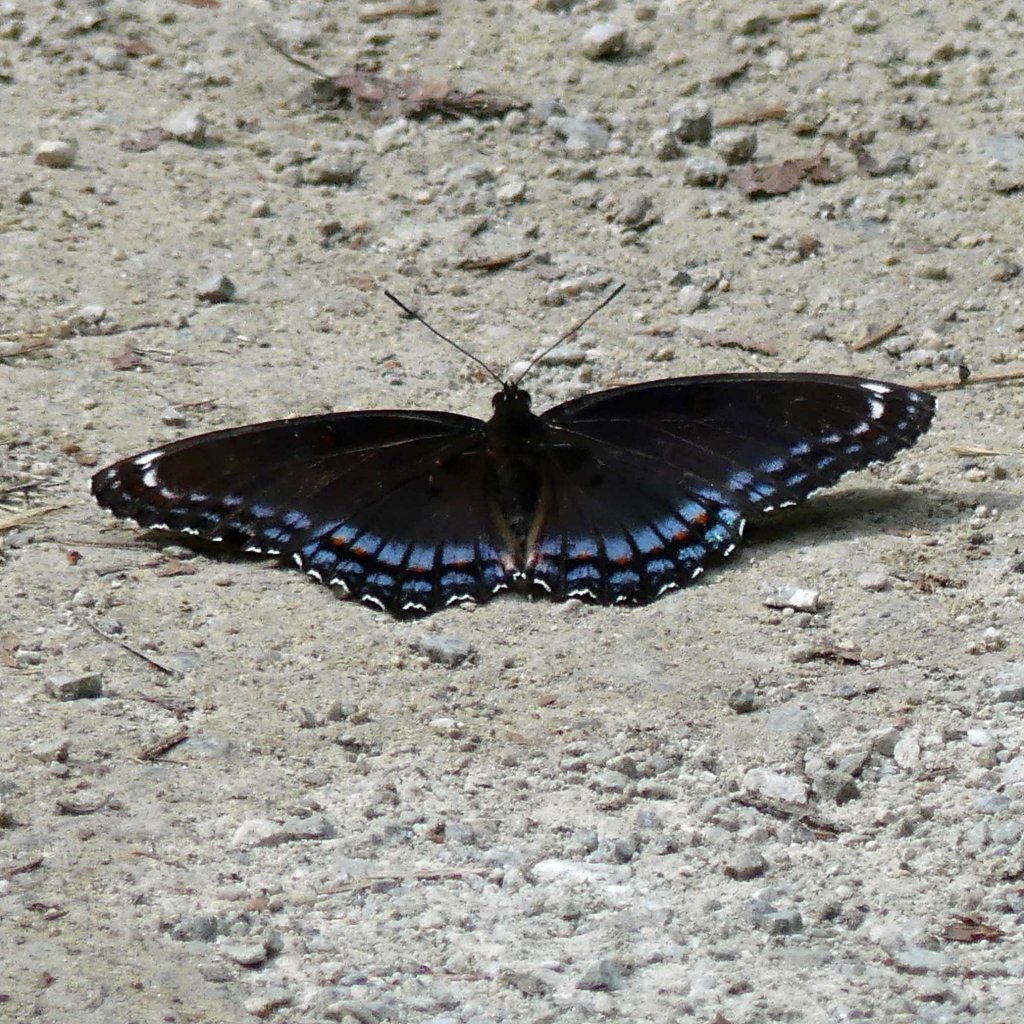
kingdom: Animalia
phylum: Arthropoda
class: Insecta
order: Lepidoptera
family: Nymphalidae
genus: Limenitis
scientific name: Limenitis astyanax
